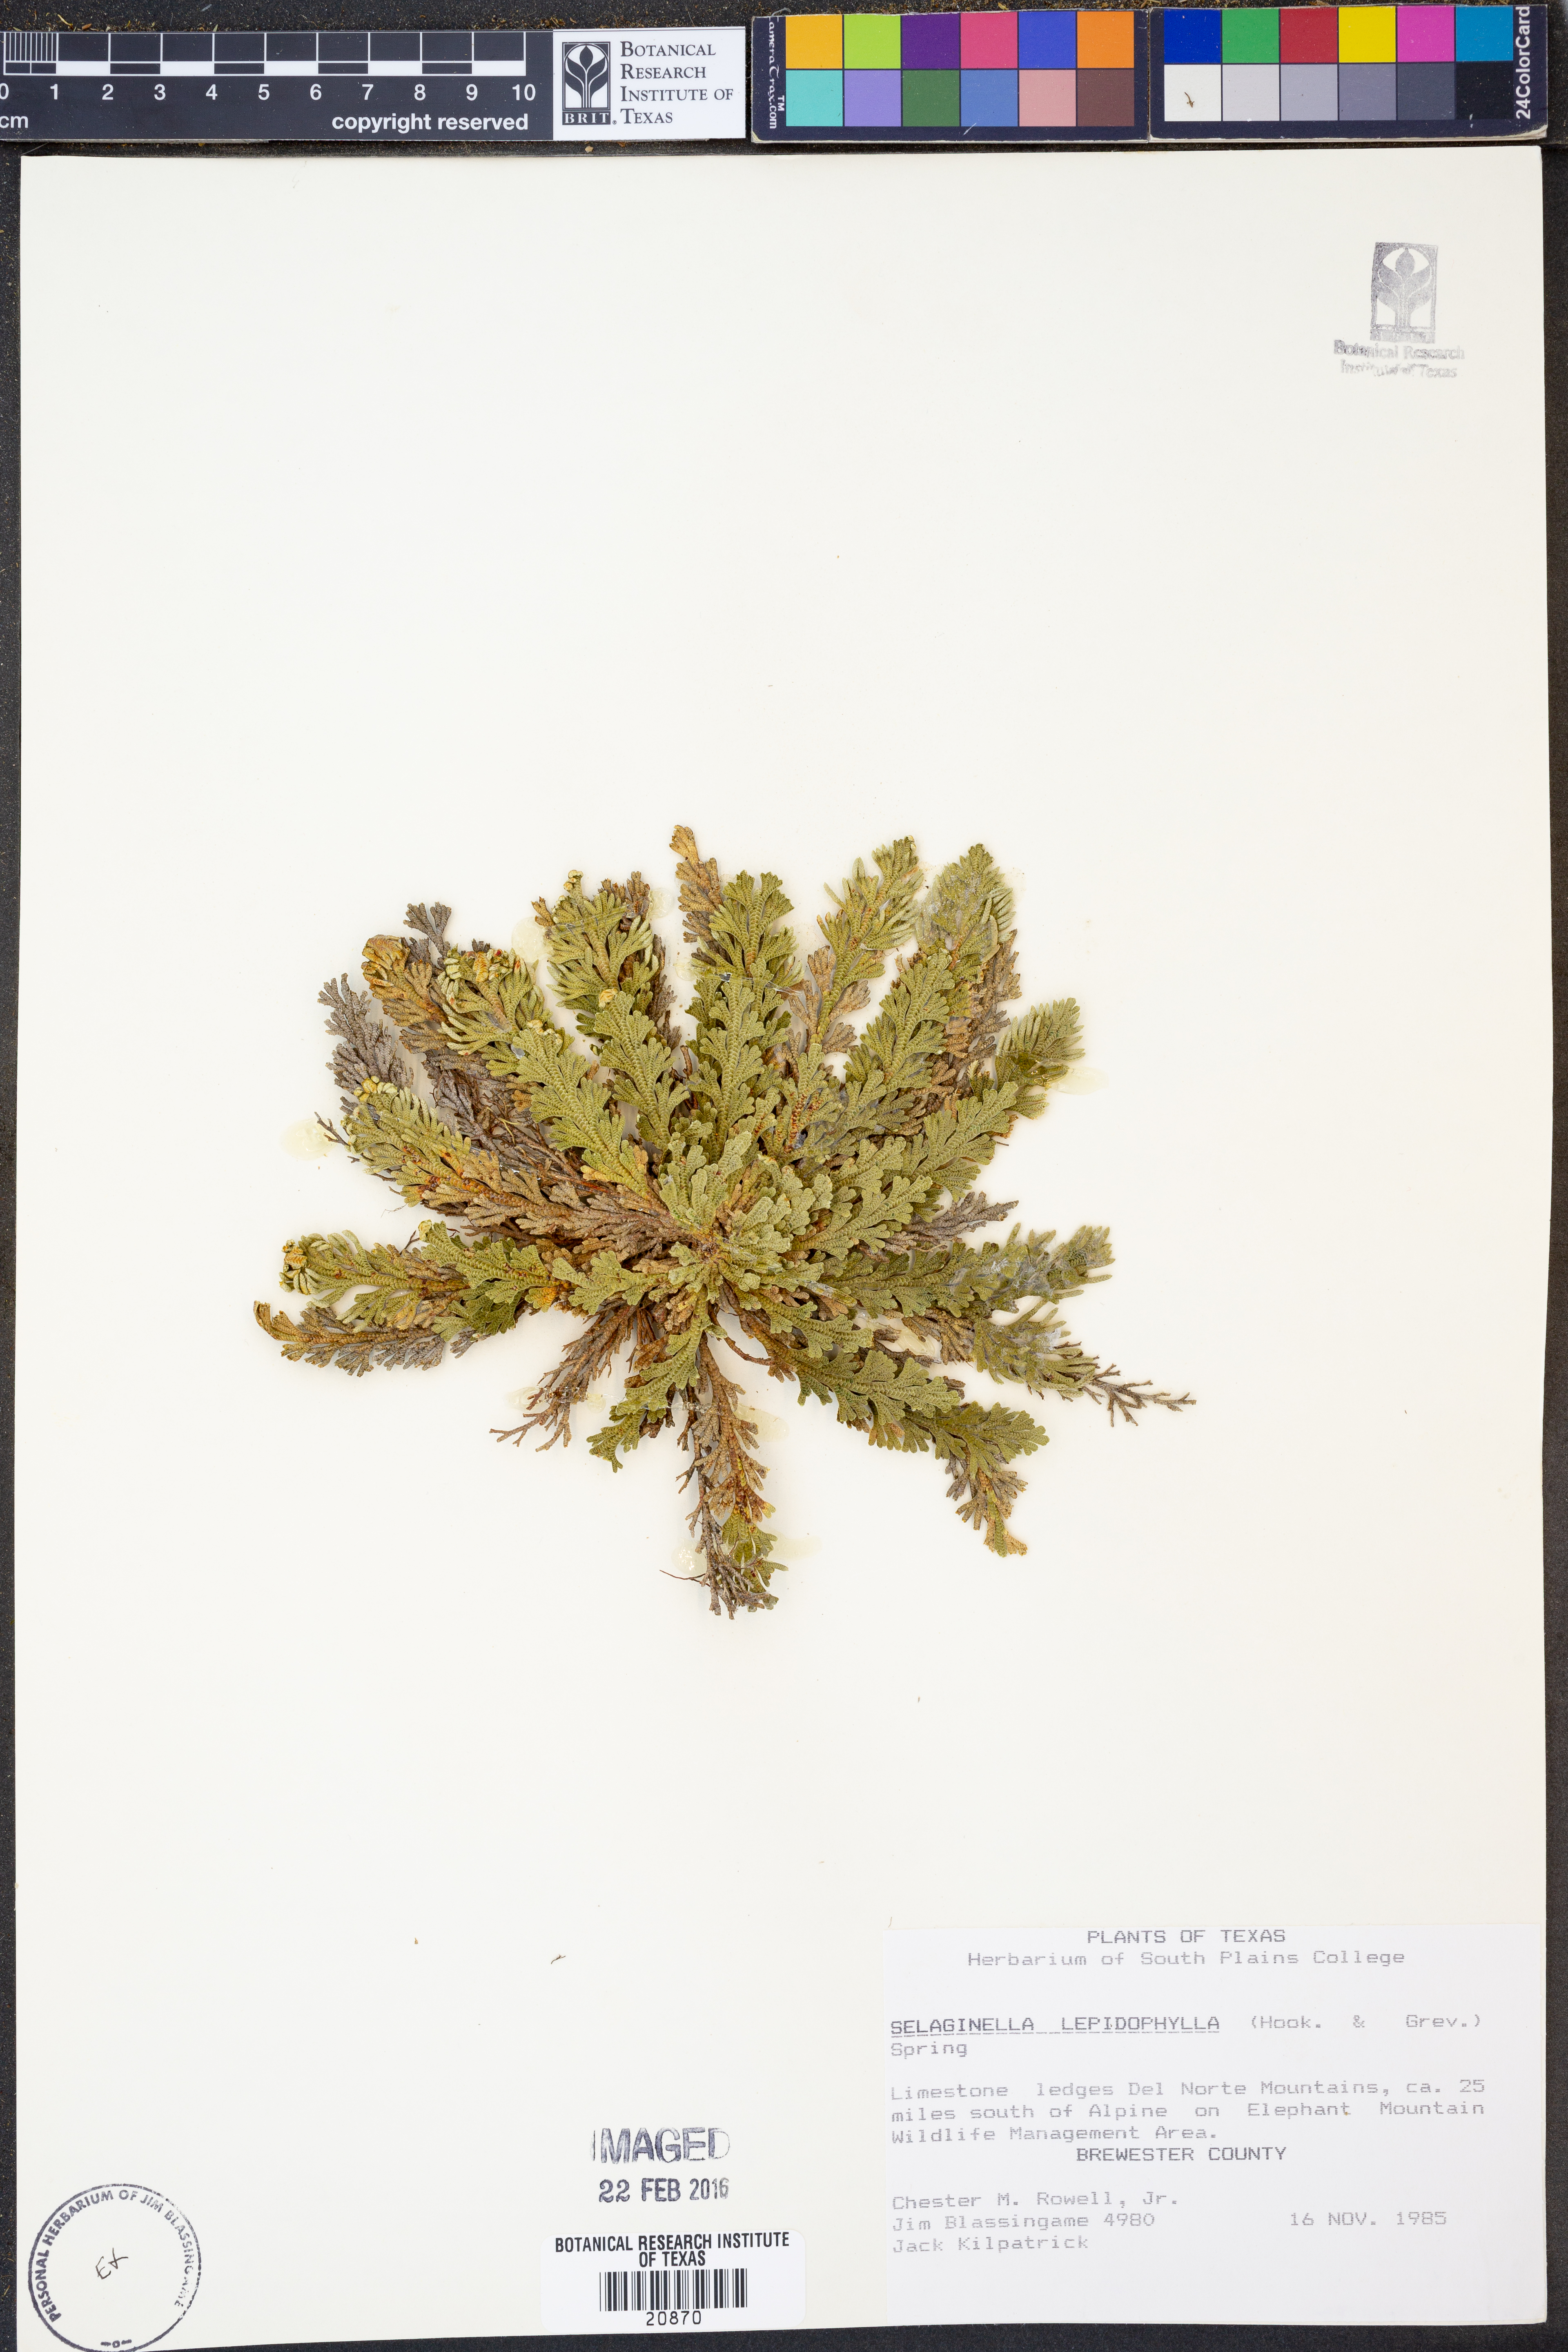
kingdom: Plantae
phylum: Tracheophyta
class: Lycopodiopsida
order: Selaginellales
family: Selaginellaceae
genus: Selaginella
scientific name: Selaginella lepidophylla
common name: Rose-of-jericho
